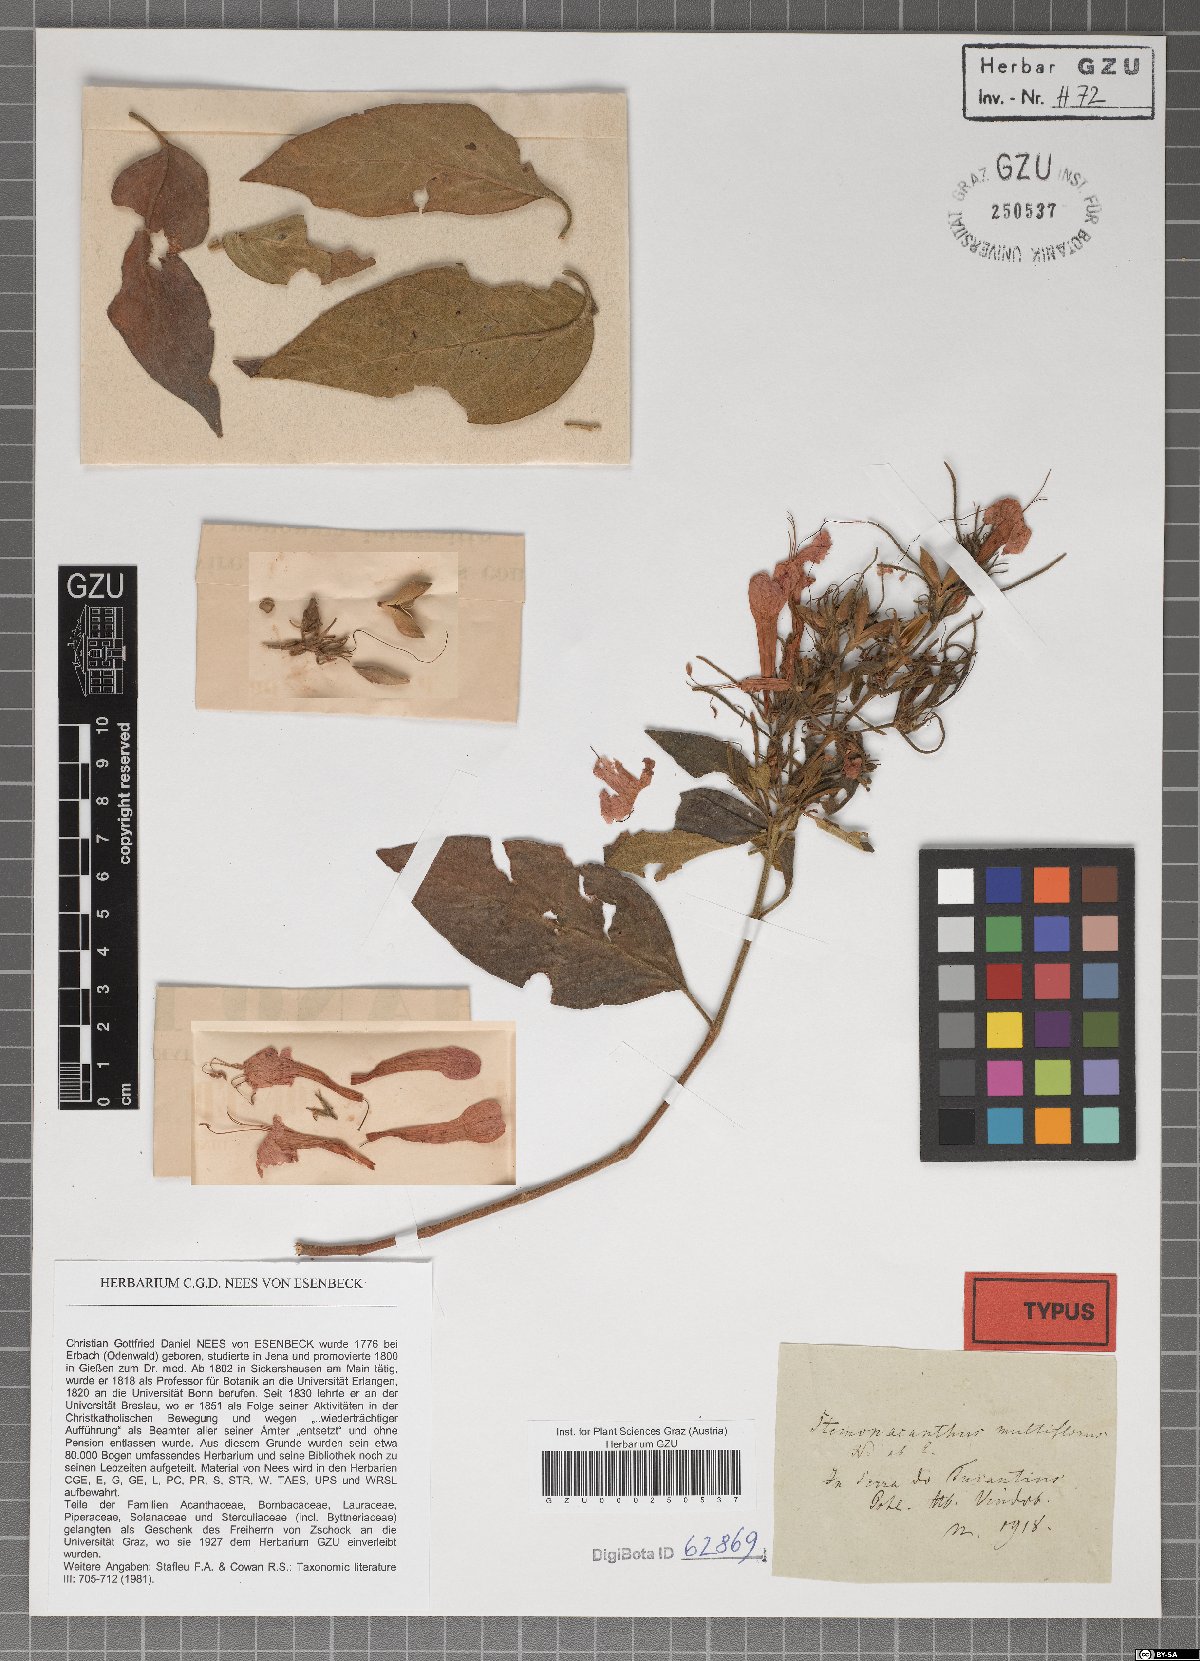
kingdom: Plantae
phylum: Tracheophyta
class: Magnoliopsida
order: Lamiales
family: Acanthaceae
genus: Ruellia
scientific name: Ruellia Stemonacanthus multiflorus
